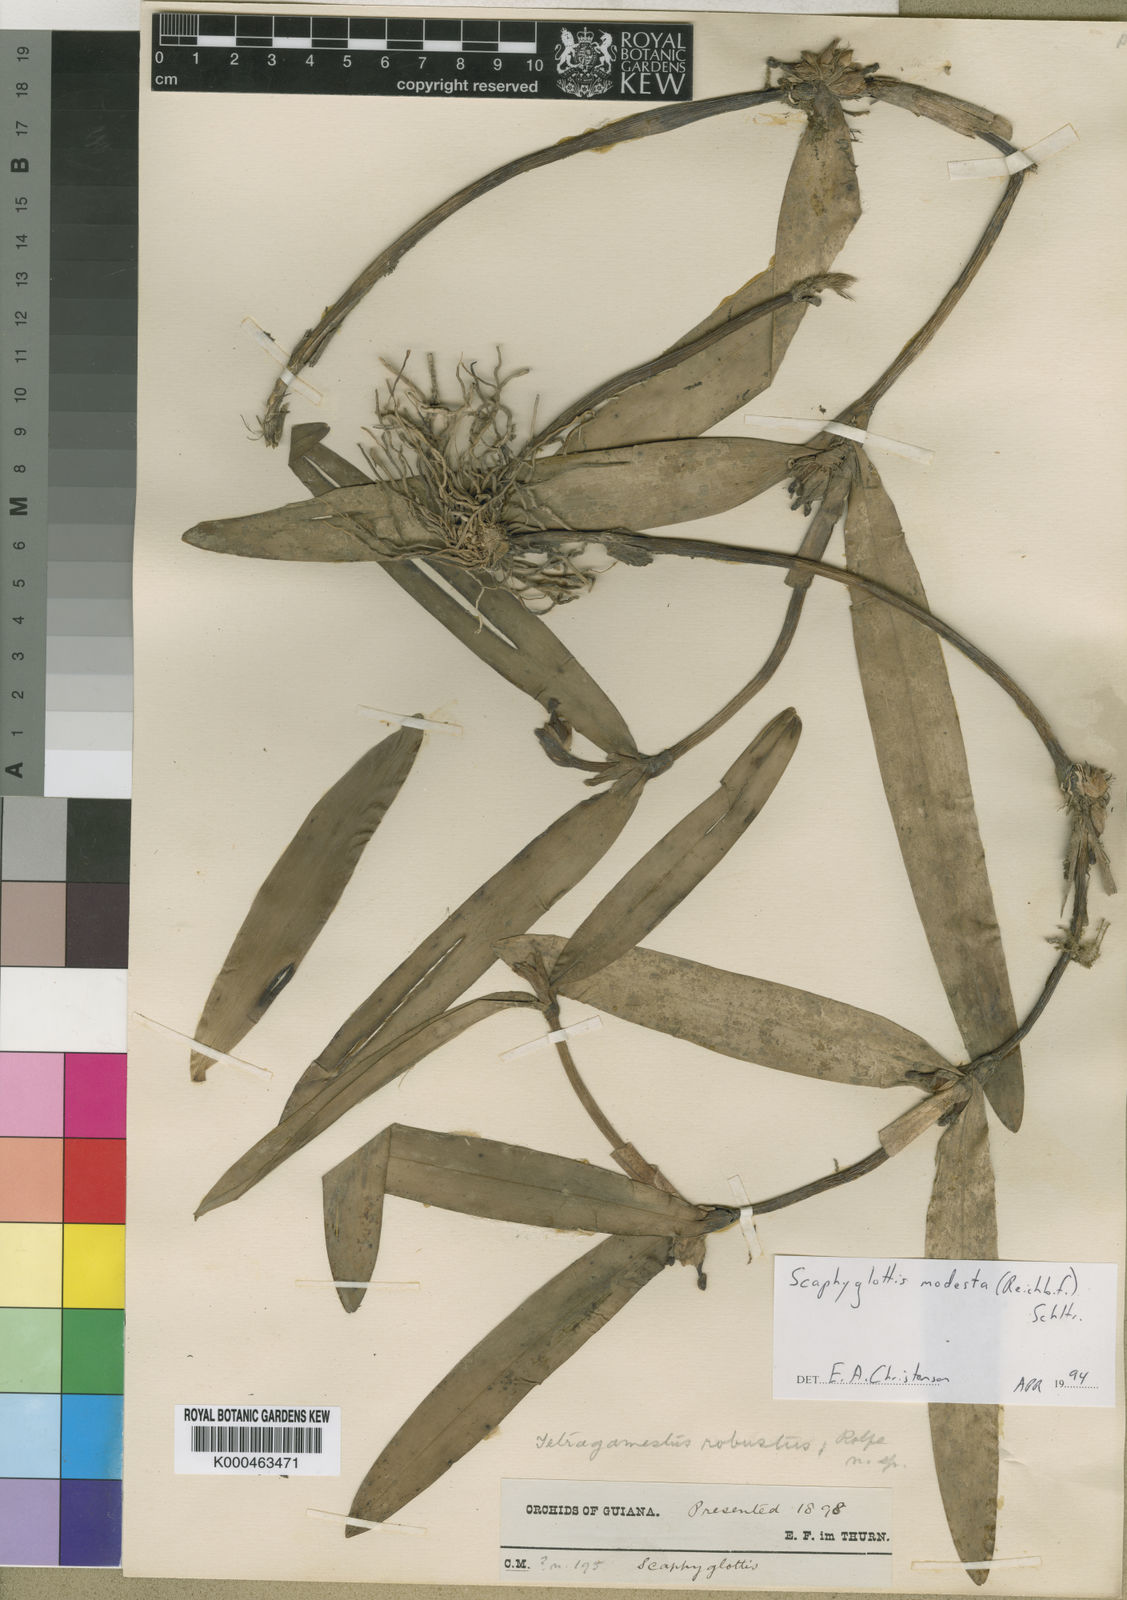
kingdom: Plantae
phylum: Tracheophyta
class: Liliopsida
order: Asparagales
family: Orchidaceae
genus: Scaphyglottis
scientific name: Scaphyglottis modesta
